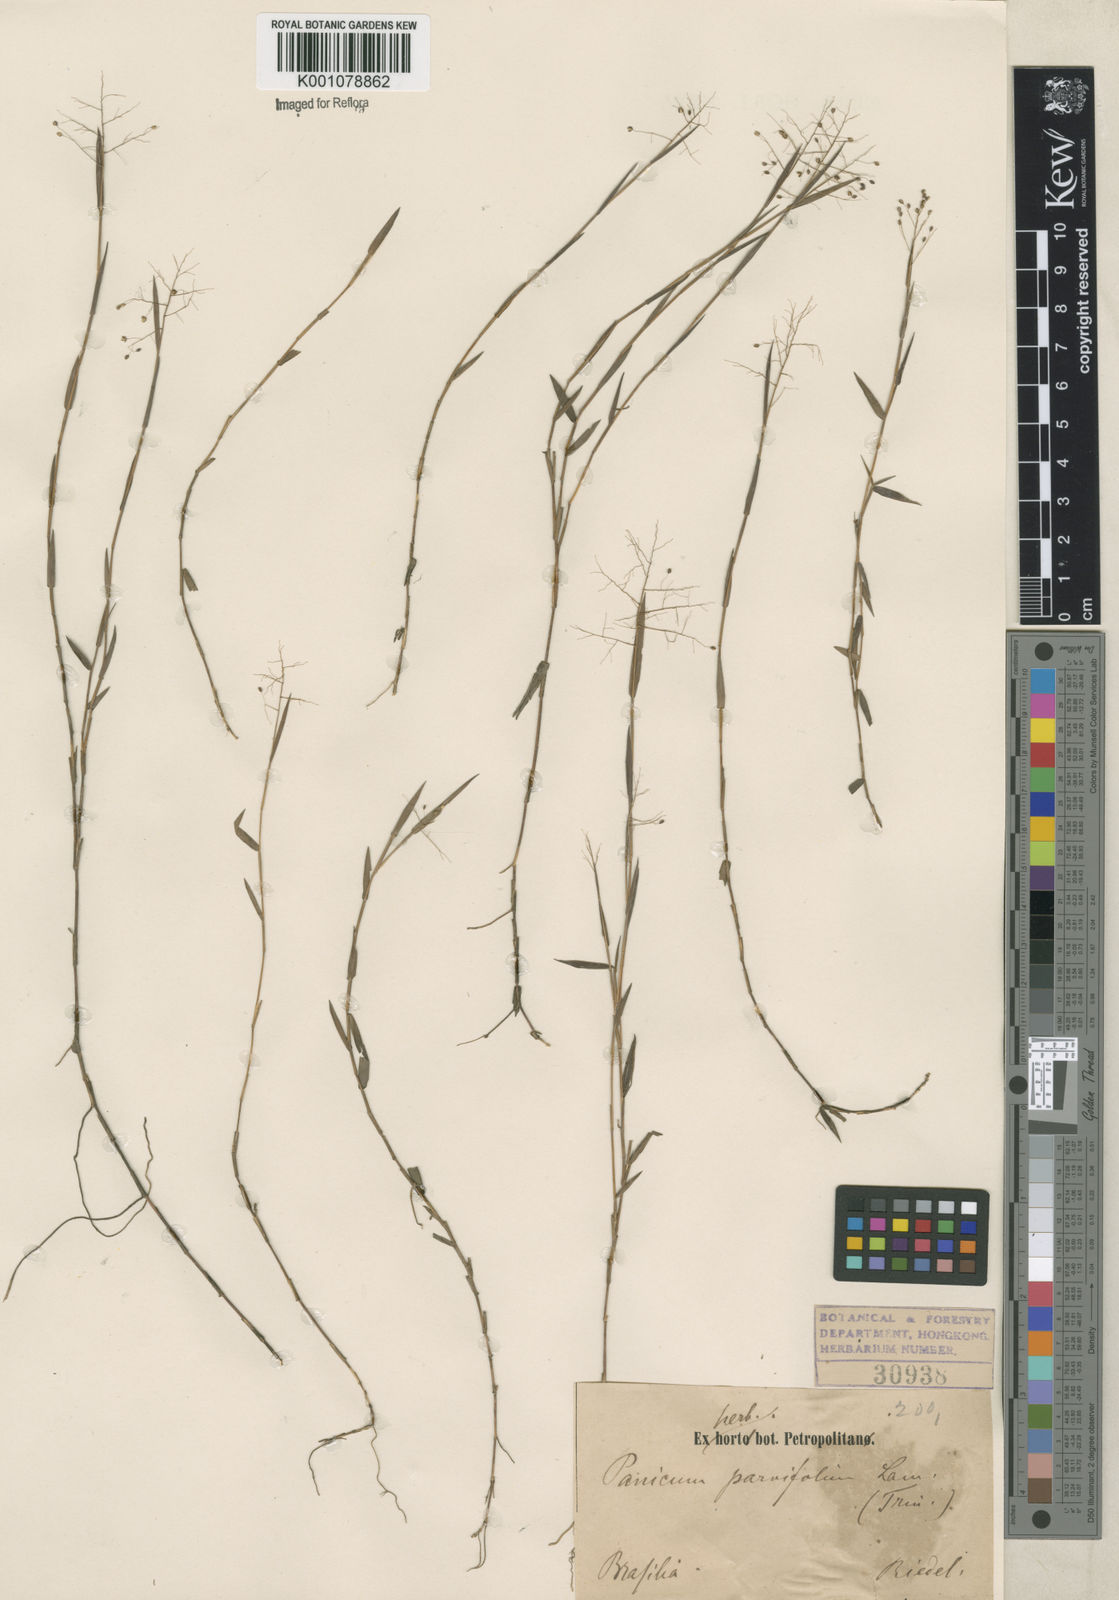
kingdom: Plantae
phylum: Tracheophyta
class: Liliopsida
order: Poales
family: Poaceae
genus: Trichanthecium
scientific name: Trichanthecium parvifolium
